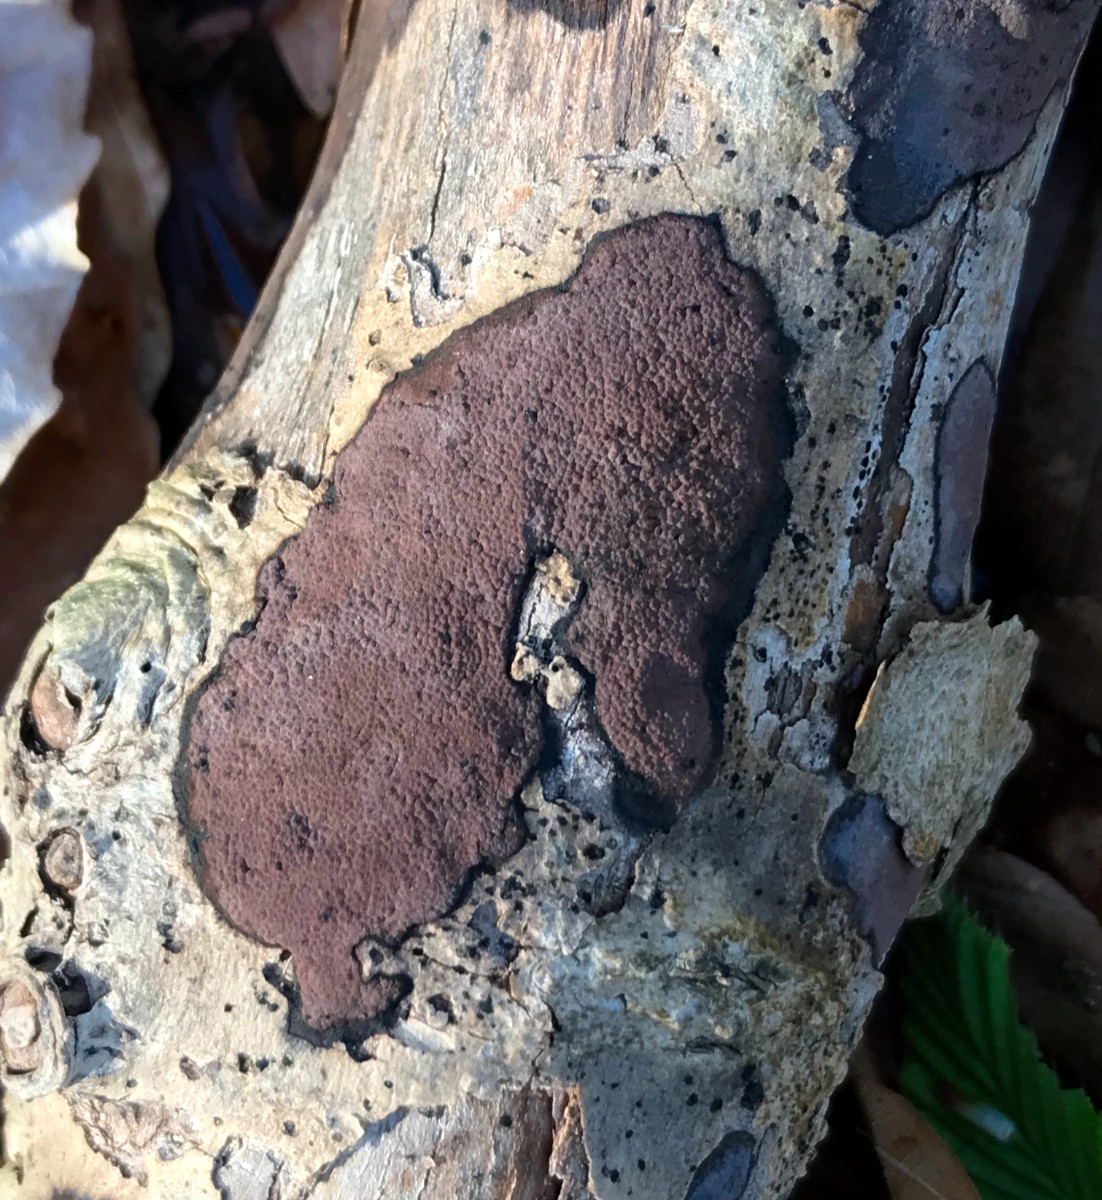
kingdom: Fungi
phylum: Ascomycota
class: Sordariomycetes
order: Xylariales
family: Hypoxylaceae
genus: Hypoxylon
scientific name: Hypoxylon petriniae
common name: nedsænket kulbær
